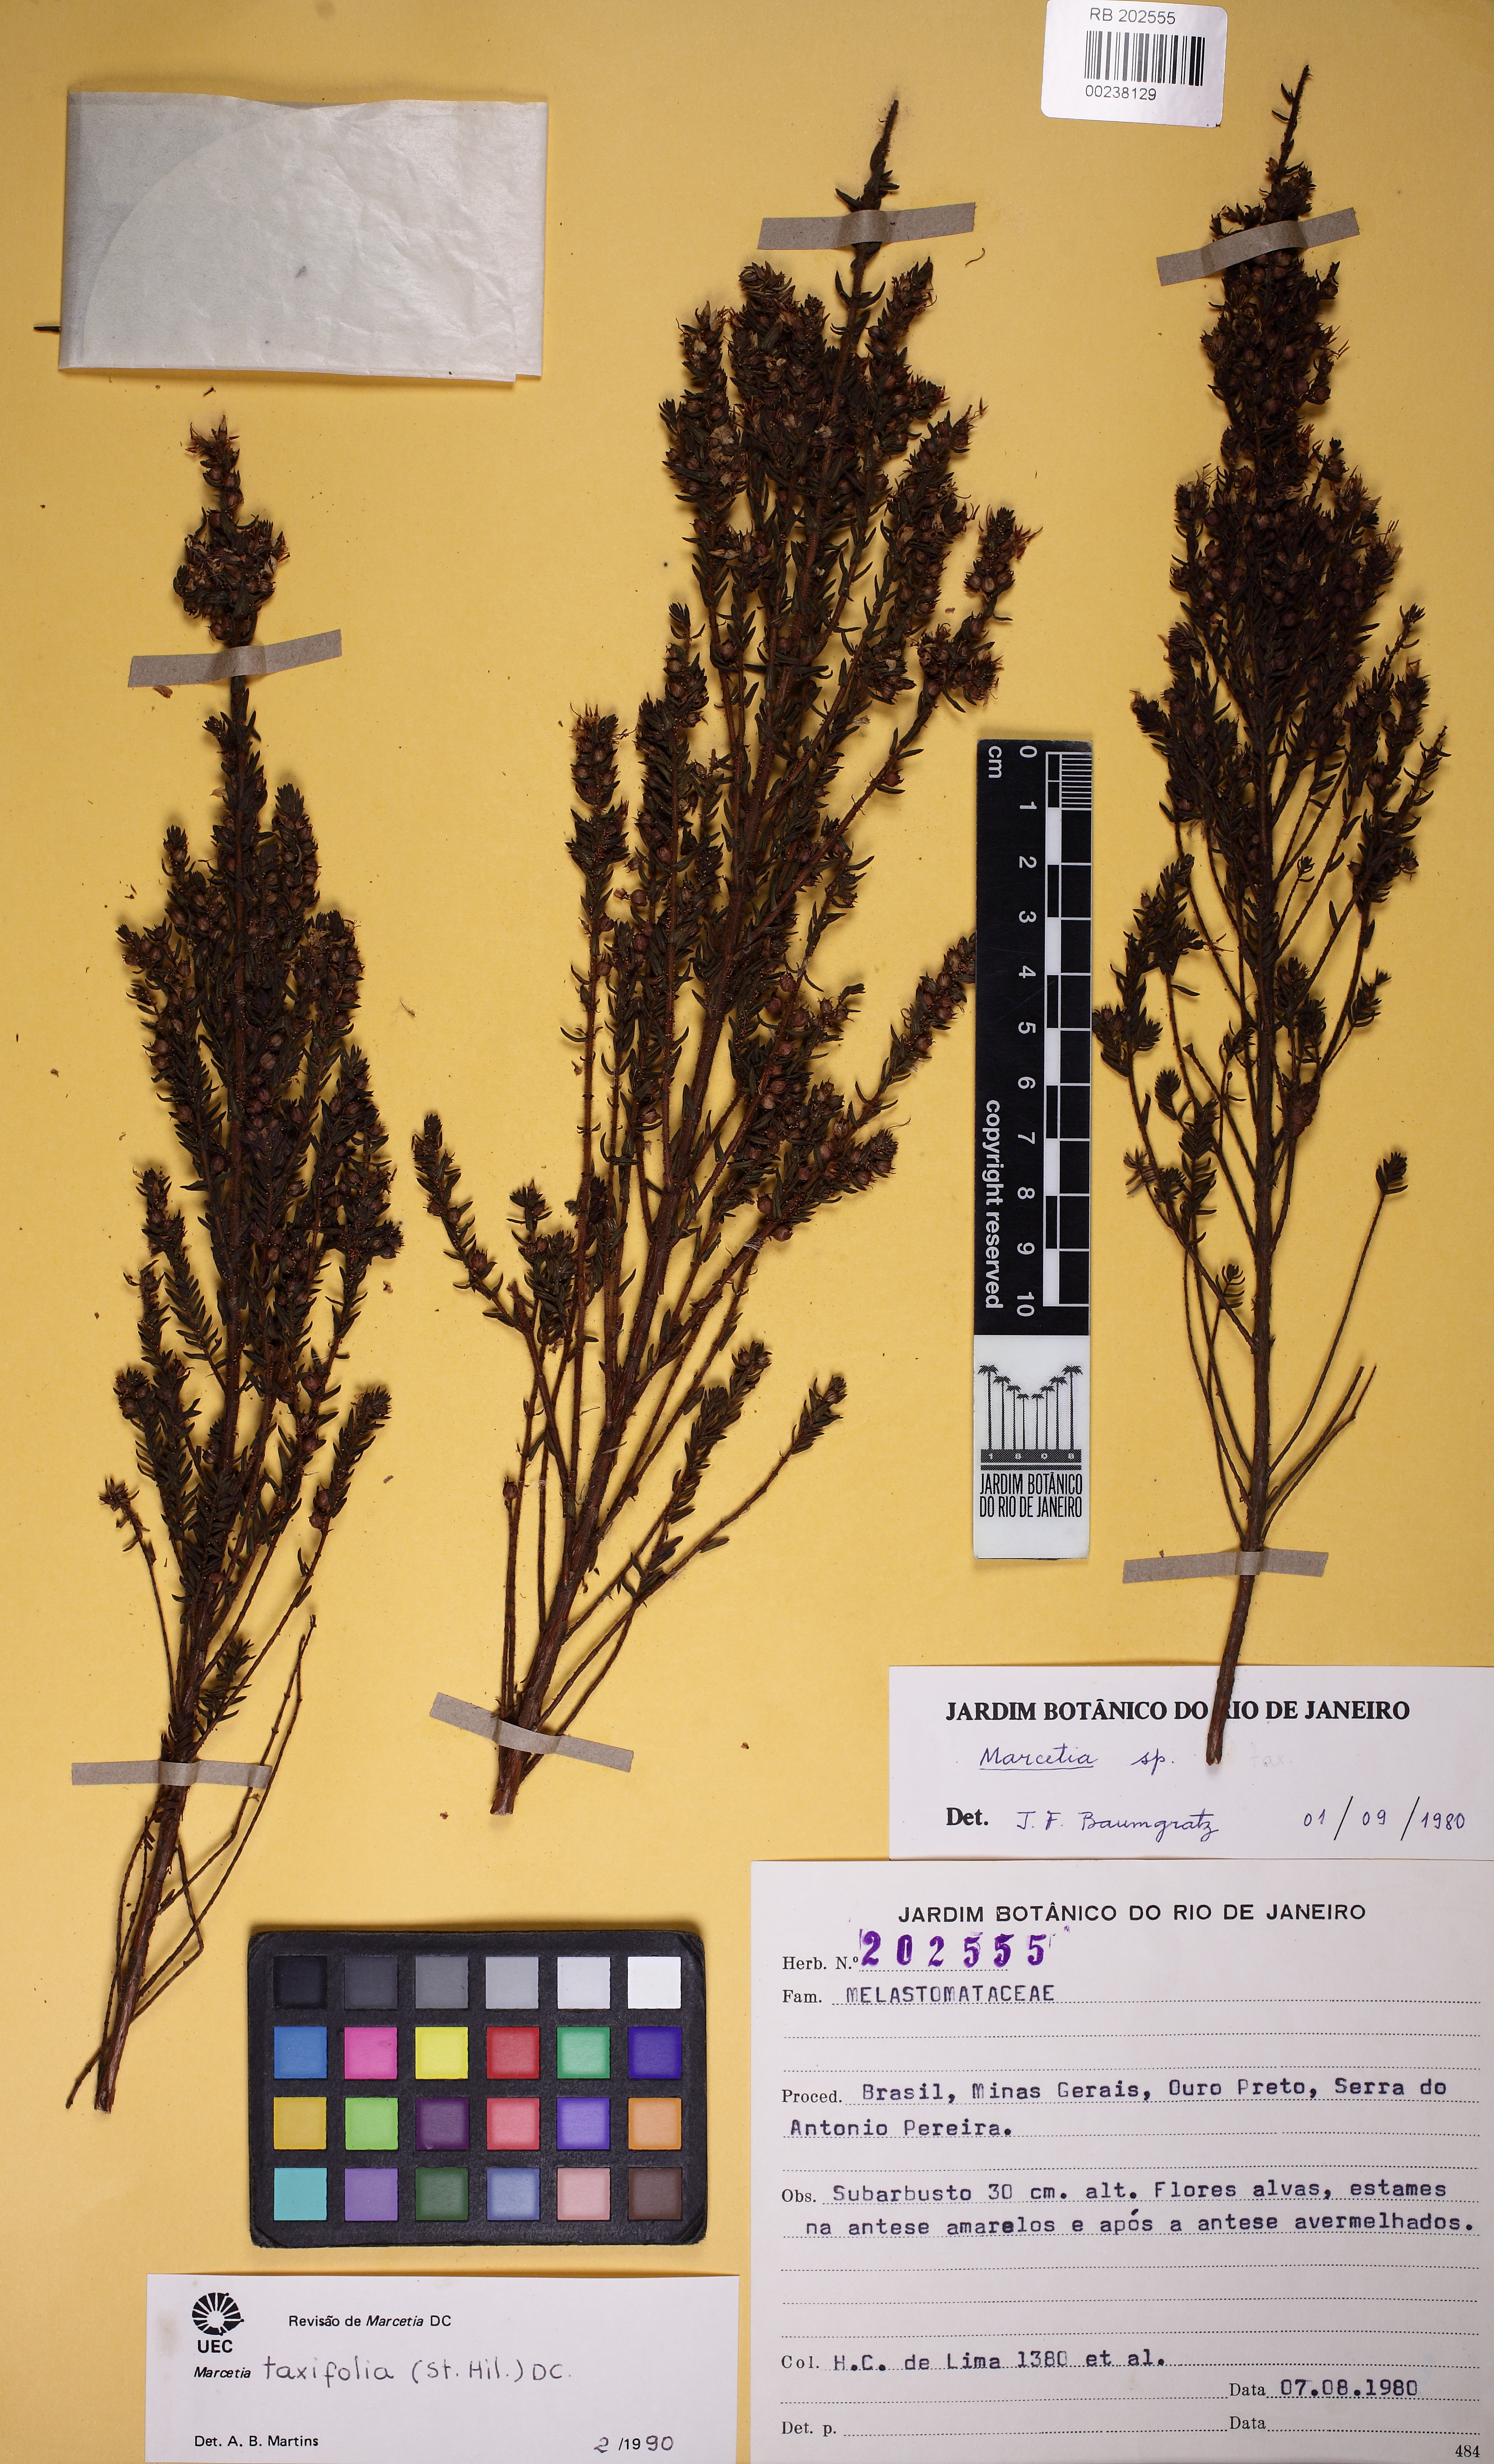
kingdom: Plantae
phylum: Tracheophyta
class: Magnoliopsida
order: Myrtales
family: Melastomataceae
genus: Marcetia
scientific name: Marcetia taxifolia
